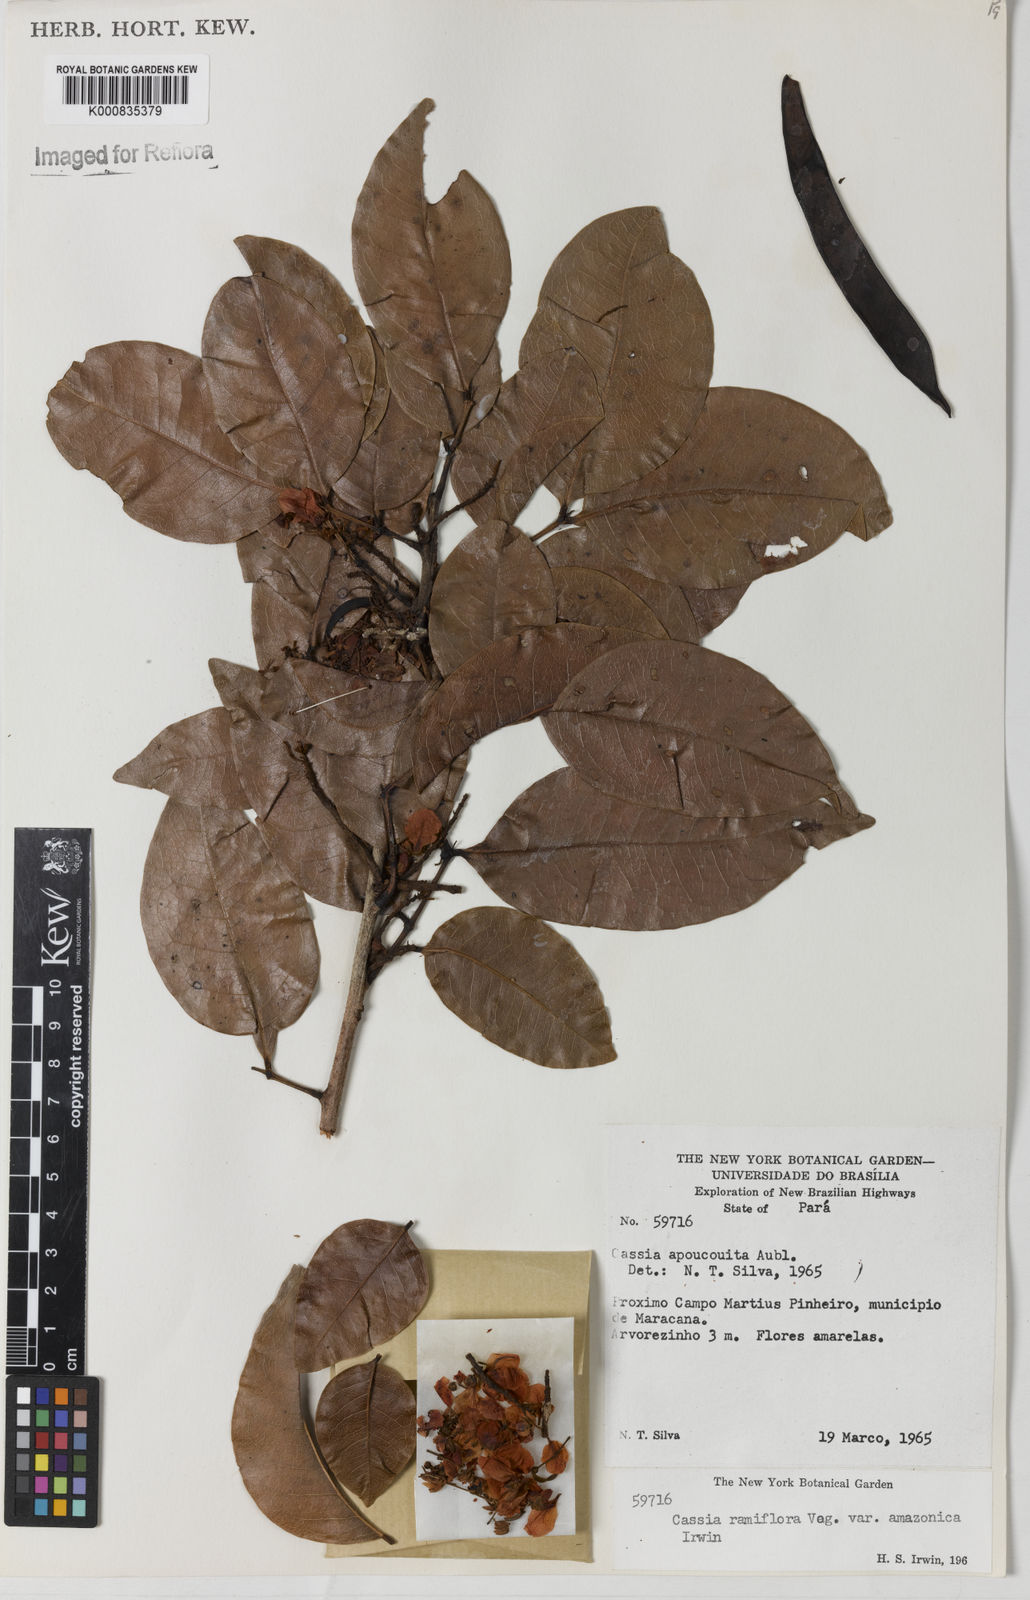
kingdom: Plantae
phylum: Tracheophyta
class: Magnoliopsida
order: Fabales
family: Fabaceae
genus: Chamaecrista
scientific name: Chamaecrista ensiformis
